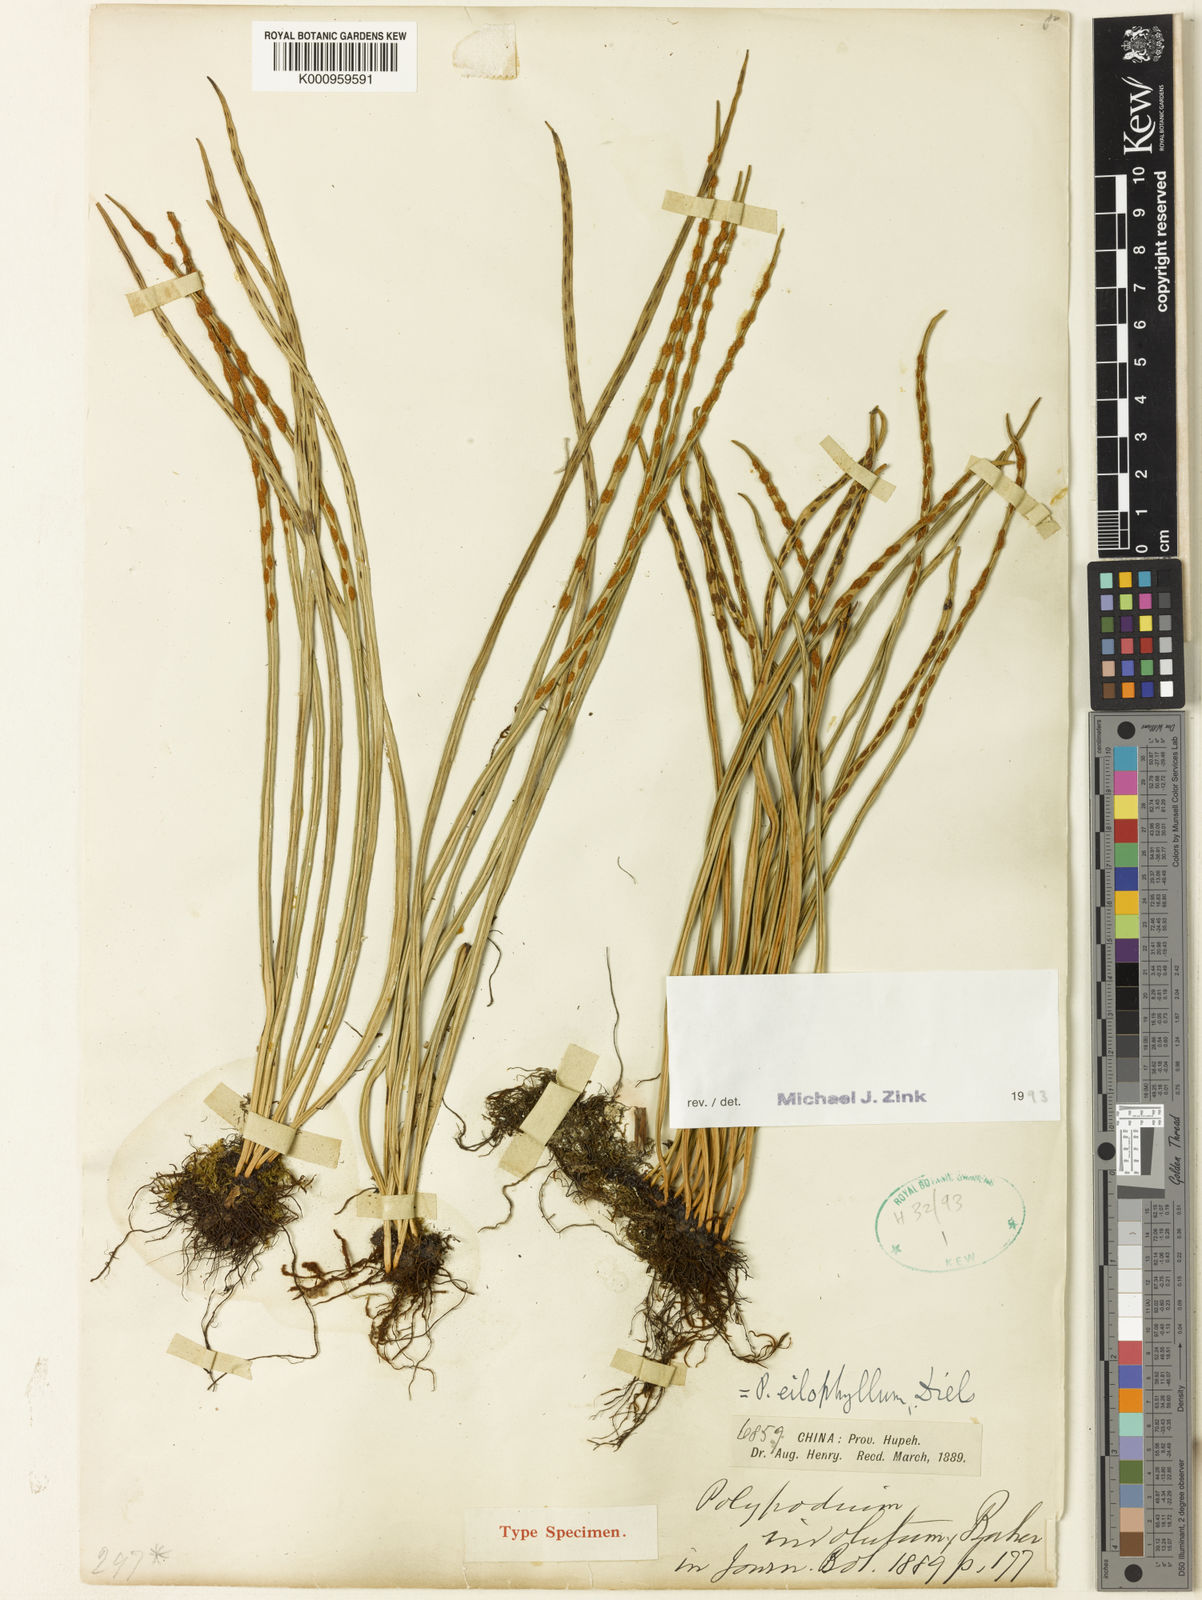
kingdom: Plantae
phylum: Tracheophyta
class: Polypodiopsida
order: Polypodiales
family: Polypodiaceae
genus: Lepisorus
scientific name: Lepisorus eilophyllus
